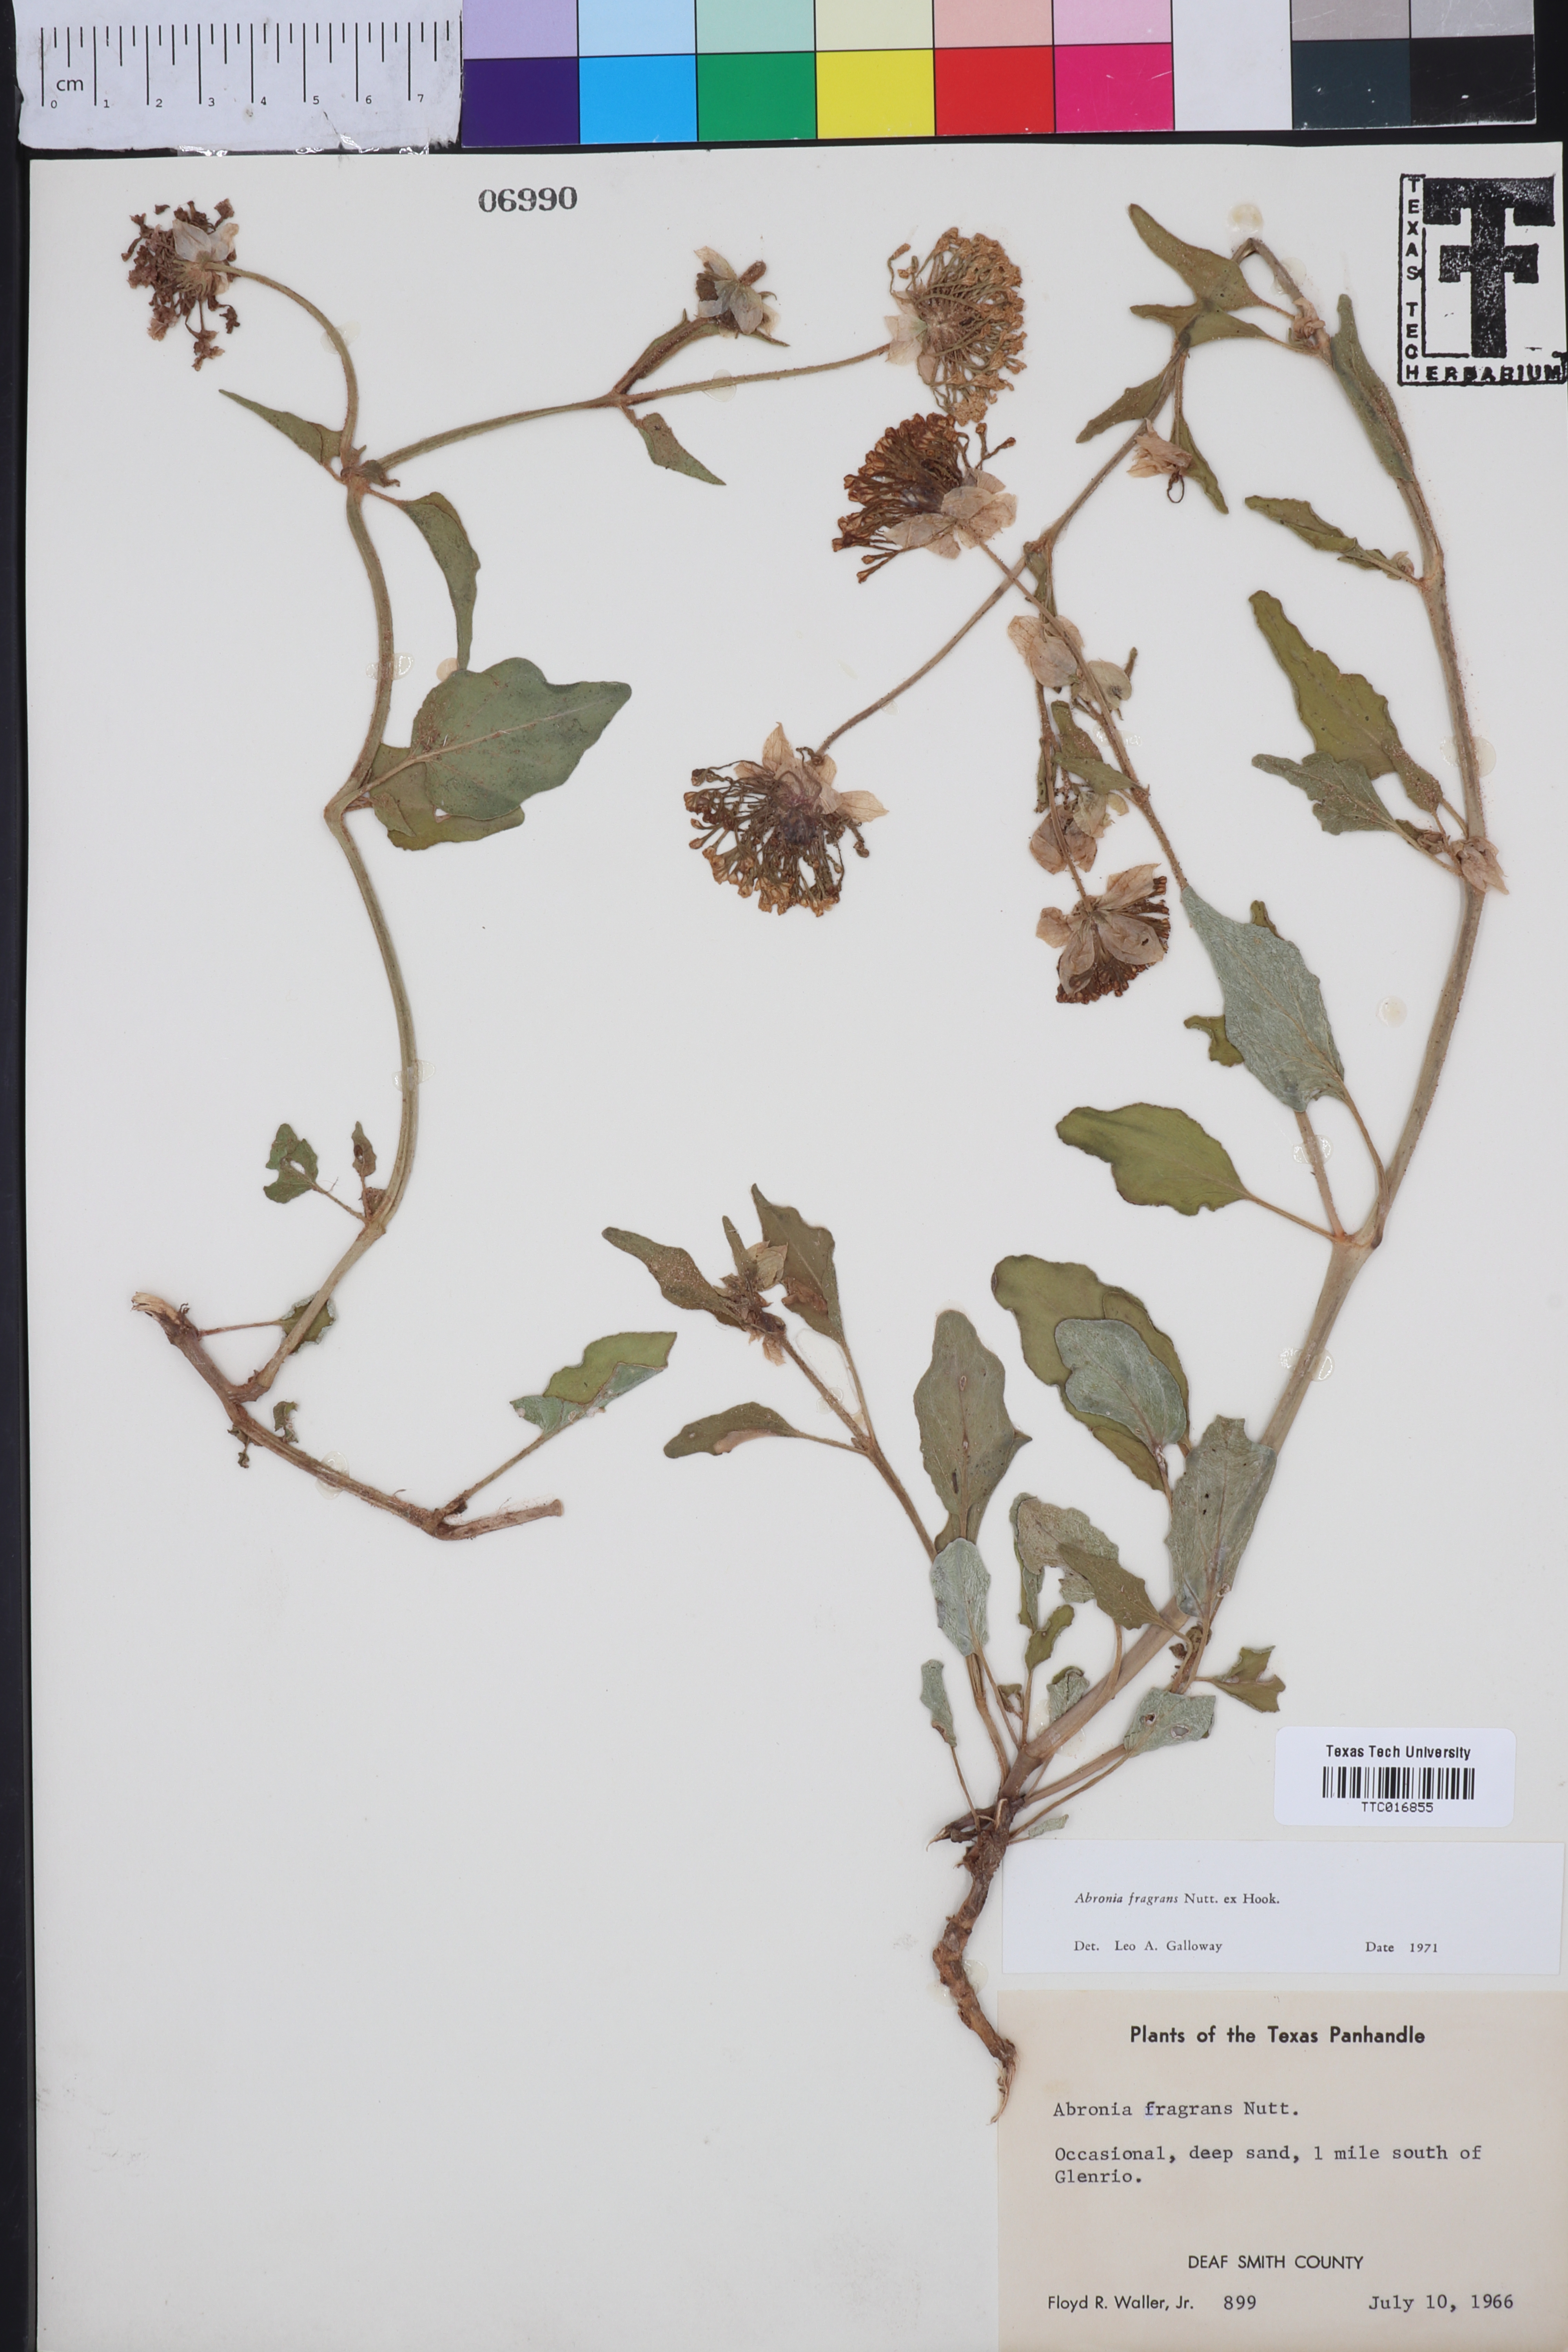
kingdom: Plantae
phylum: Tracheophyta
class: Magnoliopsida
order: Caryophyllales
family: Nyctaginaceae
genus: Abronia
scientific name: Abronia fragrans
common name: Fragrant sand-verbena
